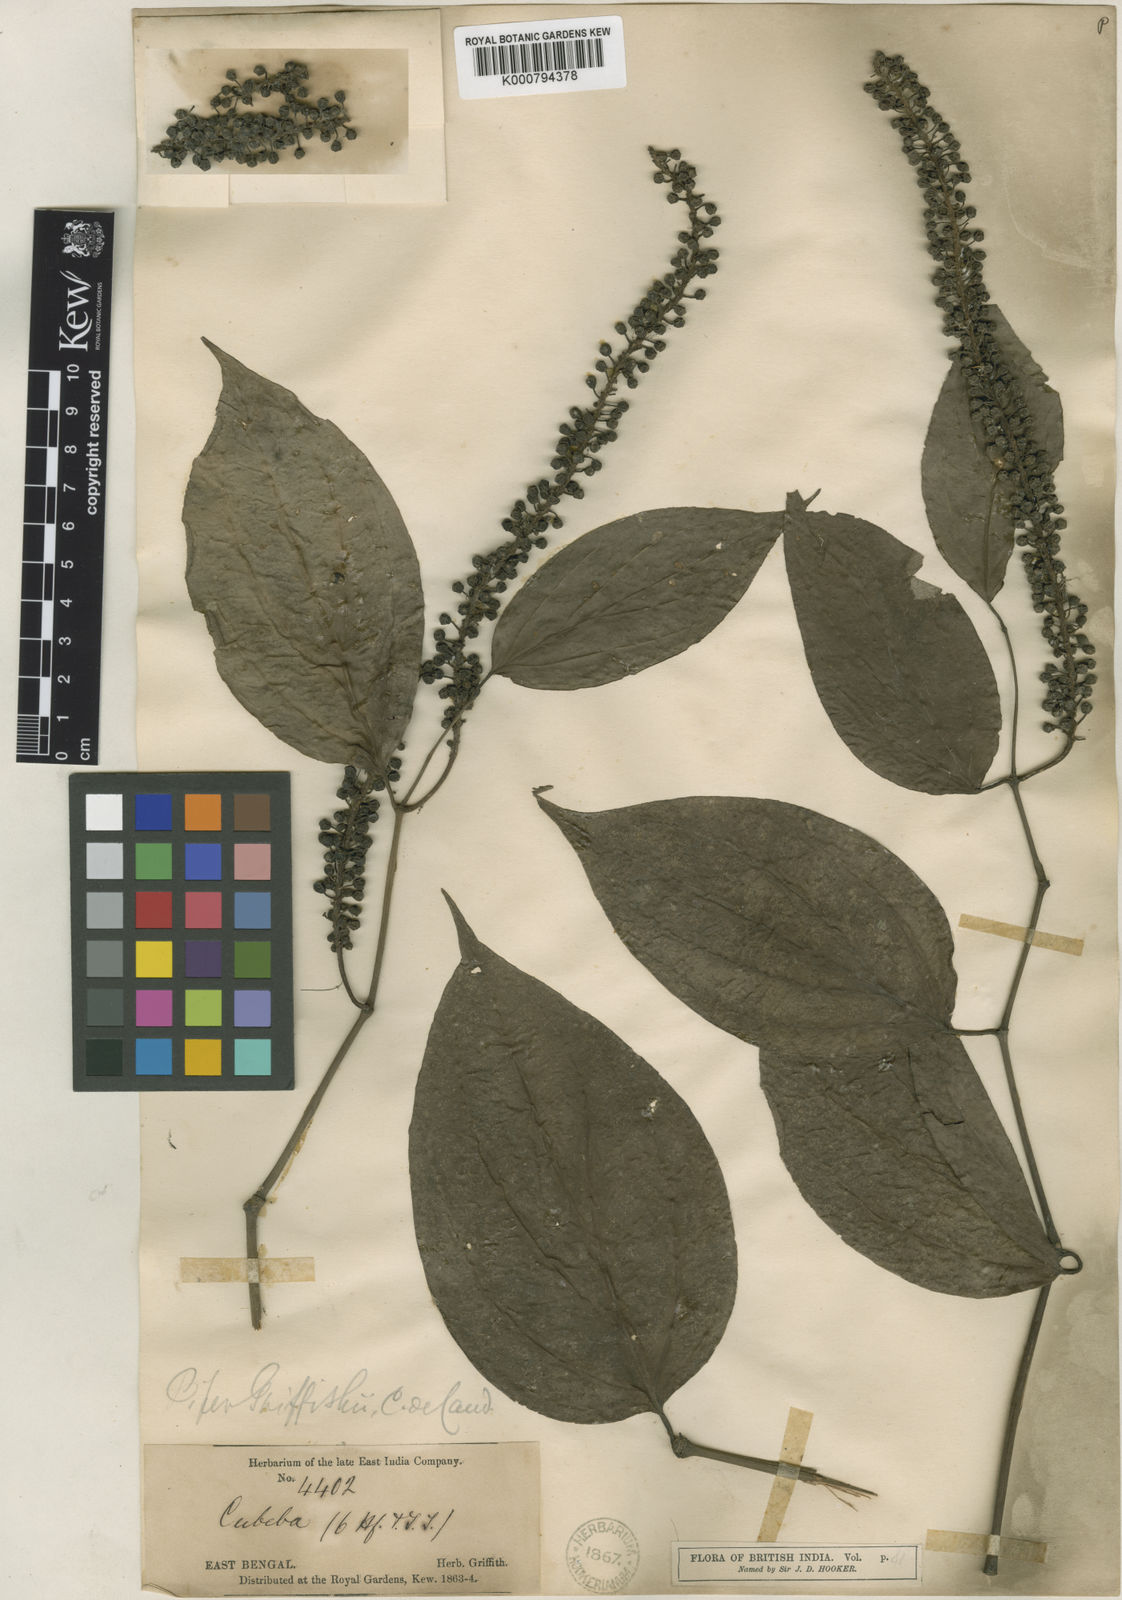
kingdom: Plantae
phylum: Tracheophyta
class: Magnoliopsida
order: Piperales
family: Piperaceae
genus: Piper
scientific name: Piper griffithii
